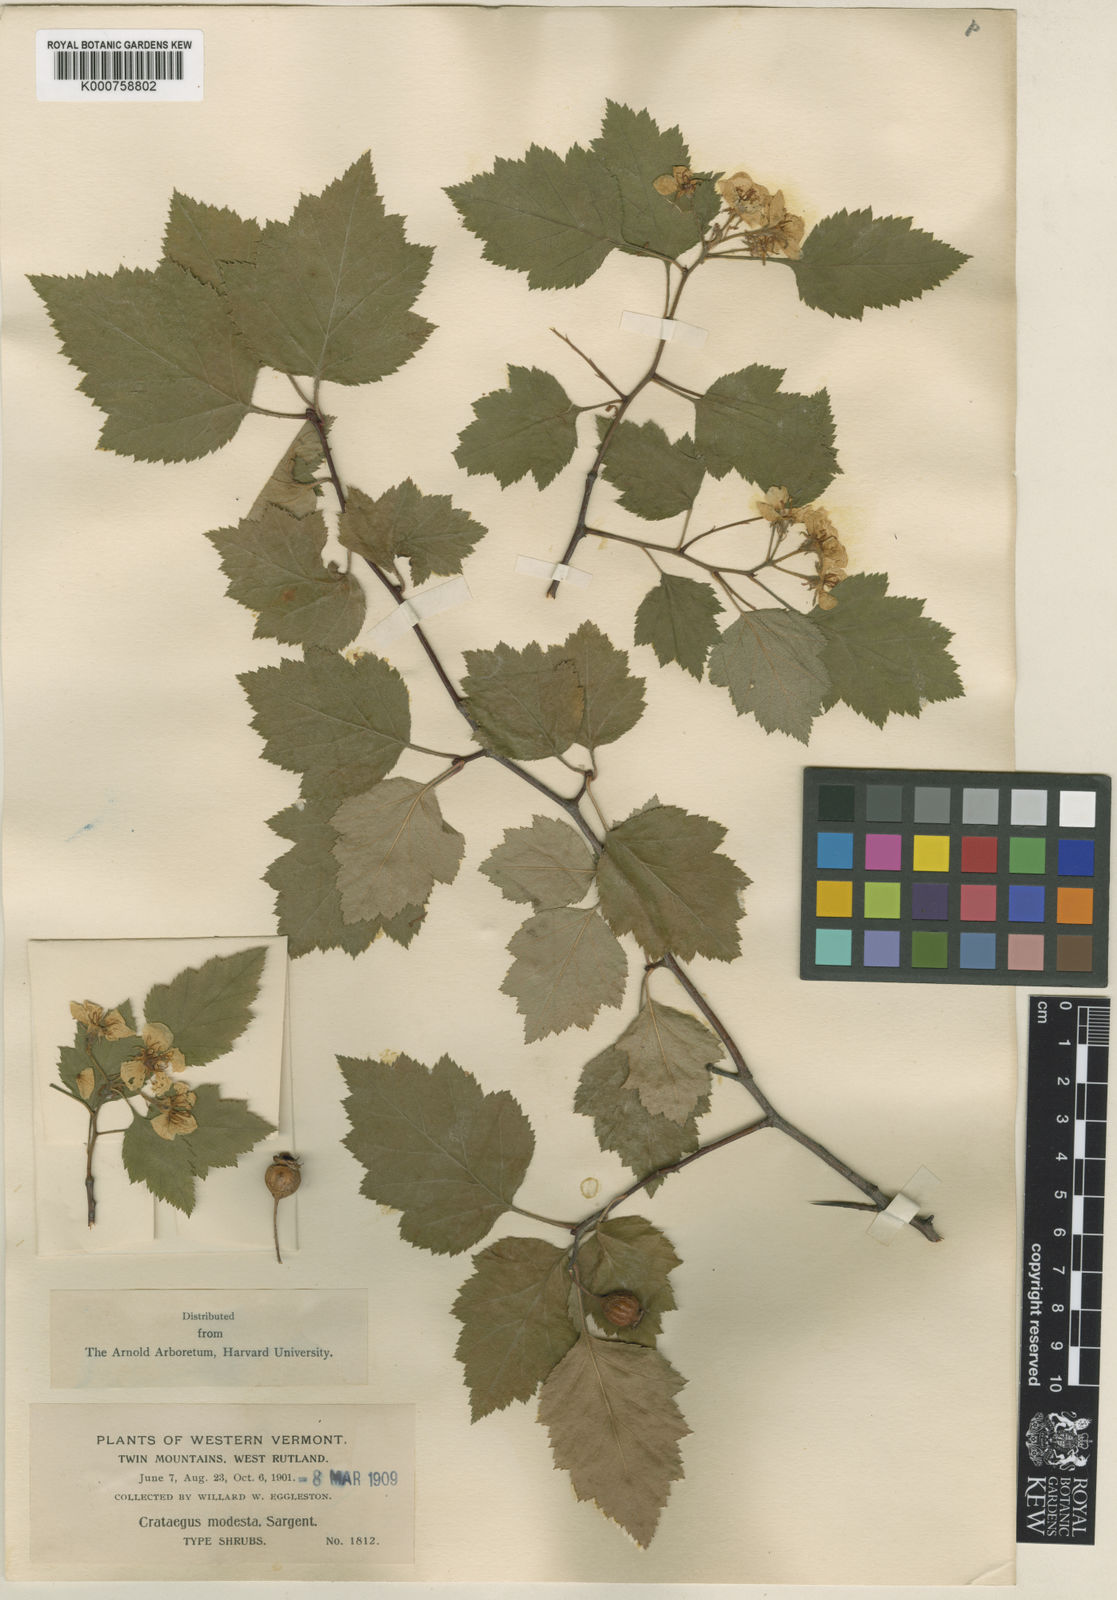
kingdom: Plantae
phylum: Tracheophyta
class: Magnoliopsida
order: Rosales
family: Rosaceae
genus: Crataegus
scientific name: Crataegus modesta
